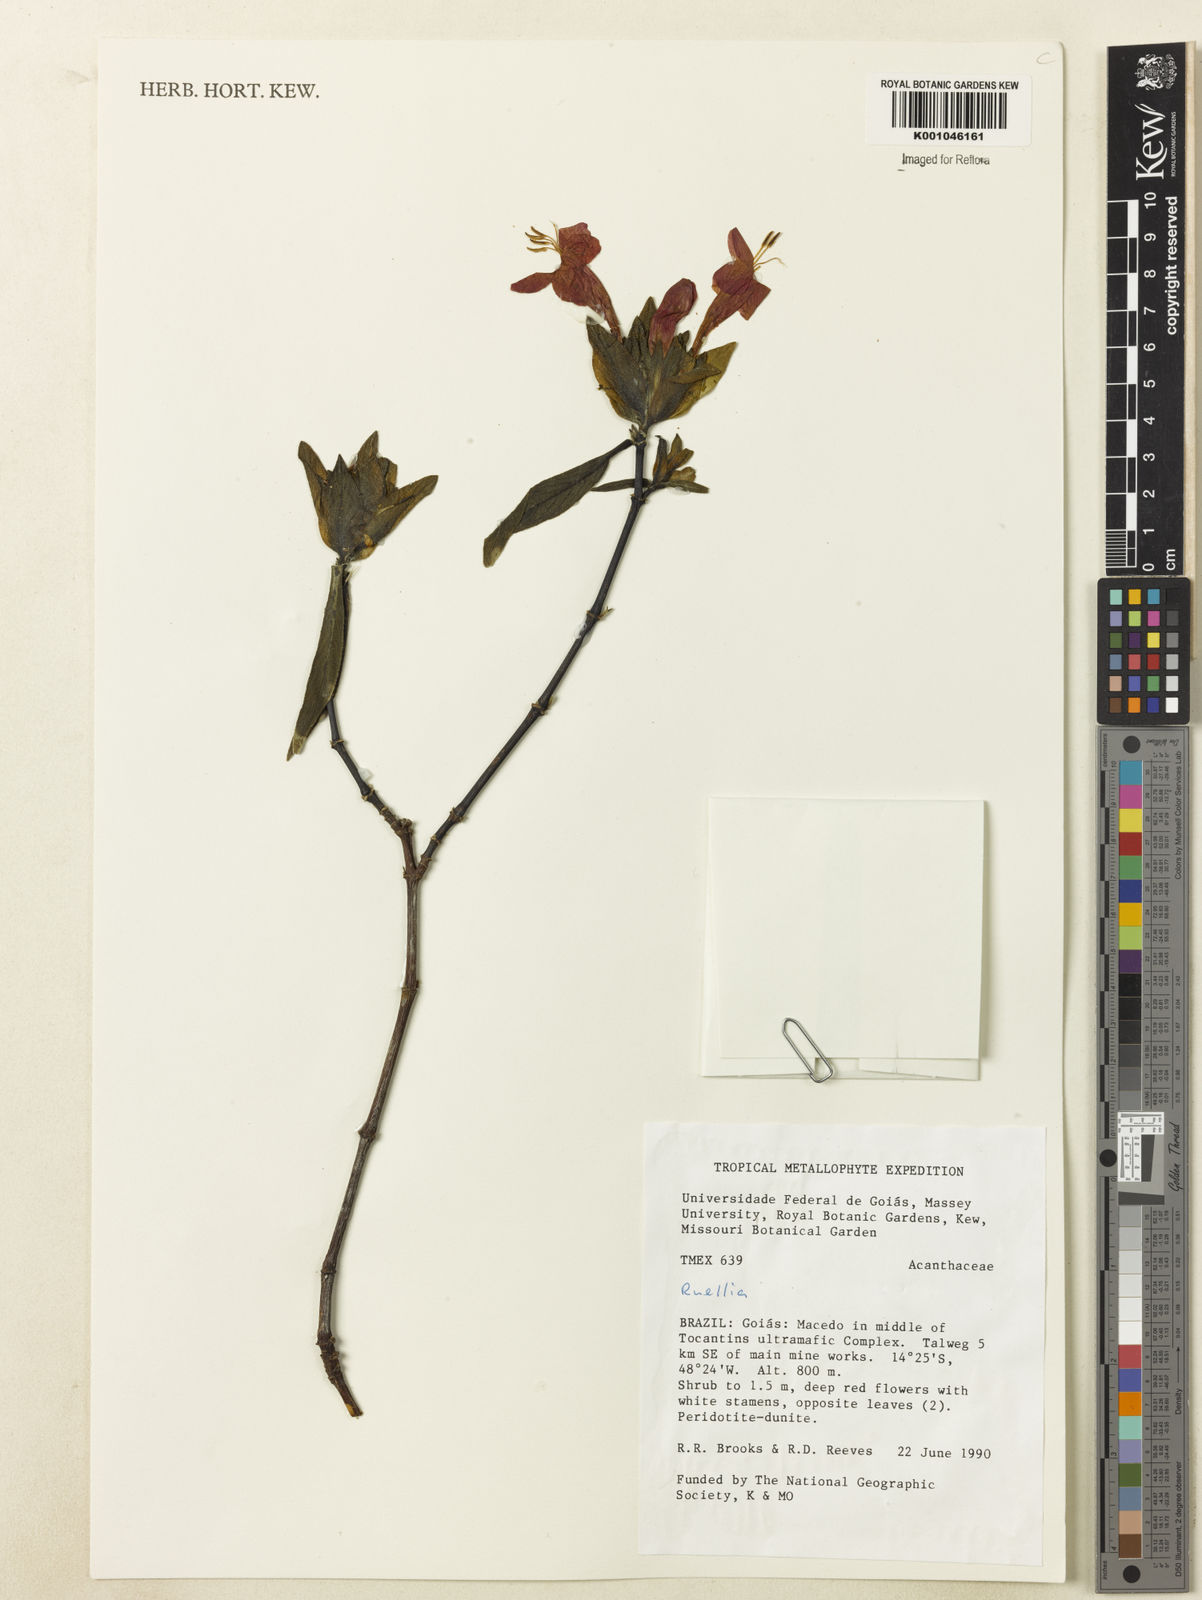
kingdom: Plantae
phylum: Tracheophyta
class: Magnoliopsida
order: Lamiales
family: Acanthaceae
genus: Ruellia
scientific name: Ruellia
